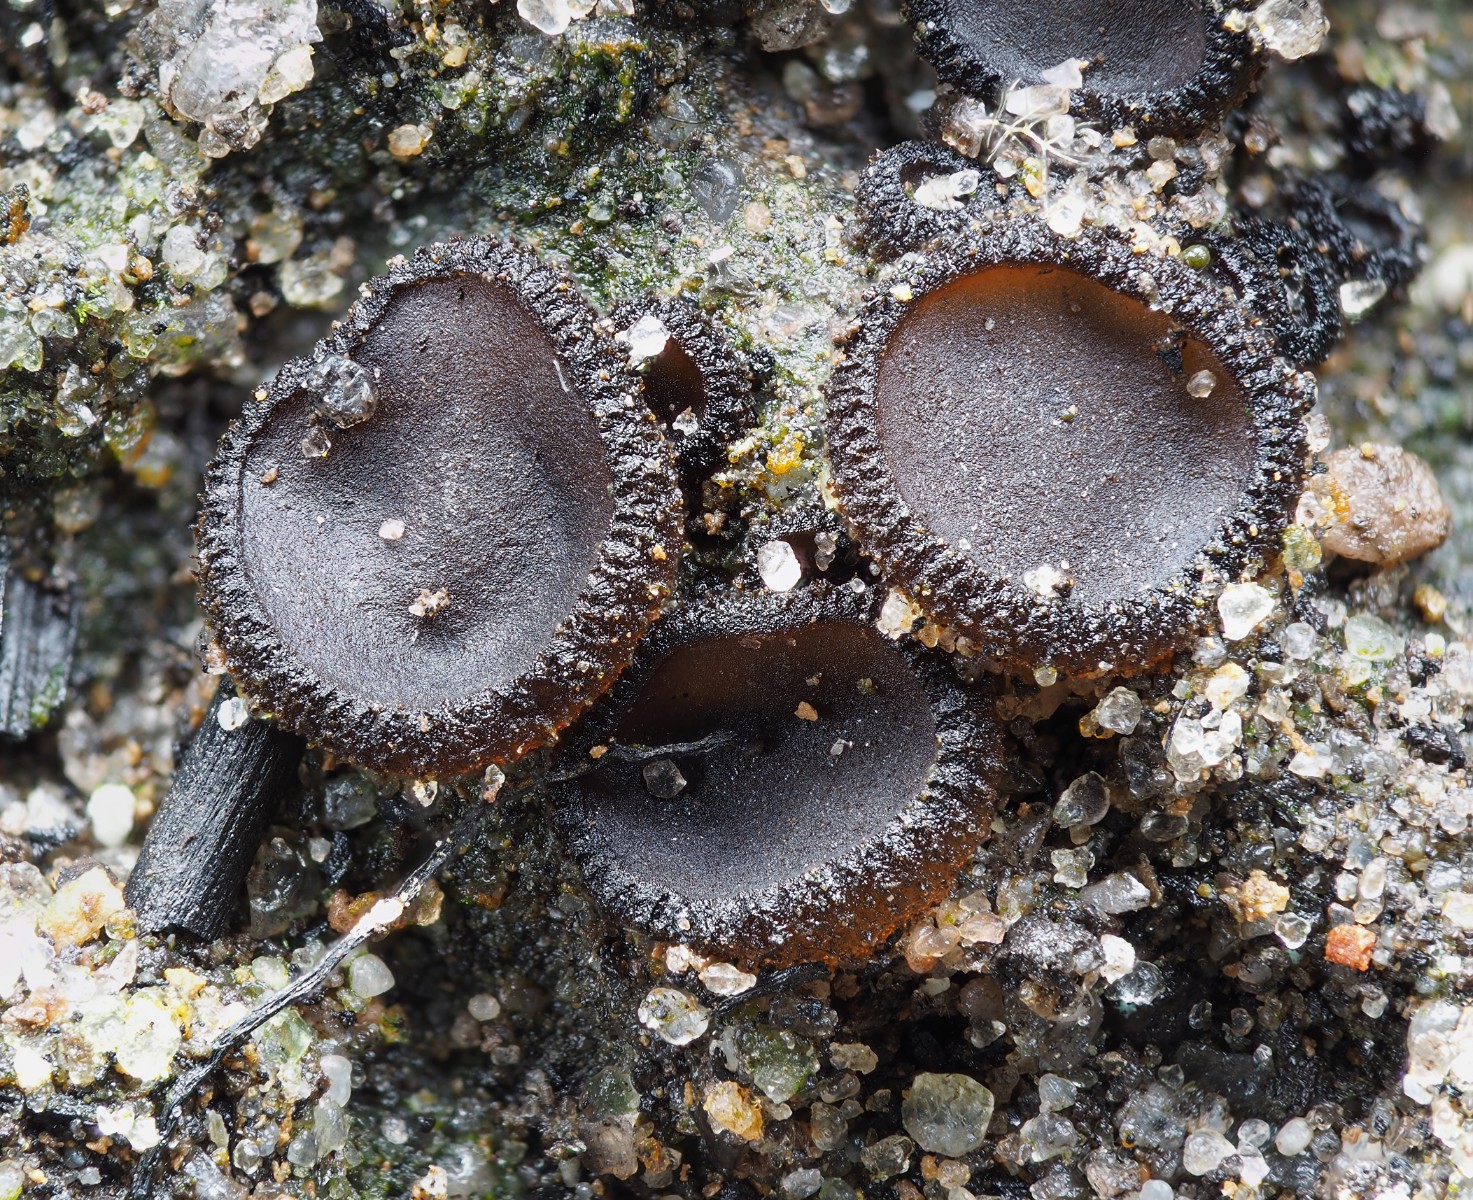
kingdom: Fungi
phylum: Ascomycota
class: Pezizomycetes
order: Pezizales
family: Pyronemataceae
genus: Anthracobia
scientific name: Anthracobia subatra
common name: mørk ildbæger
